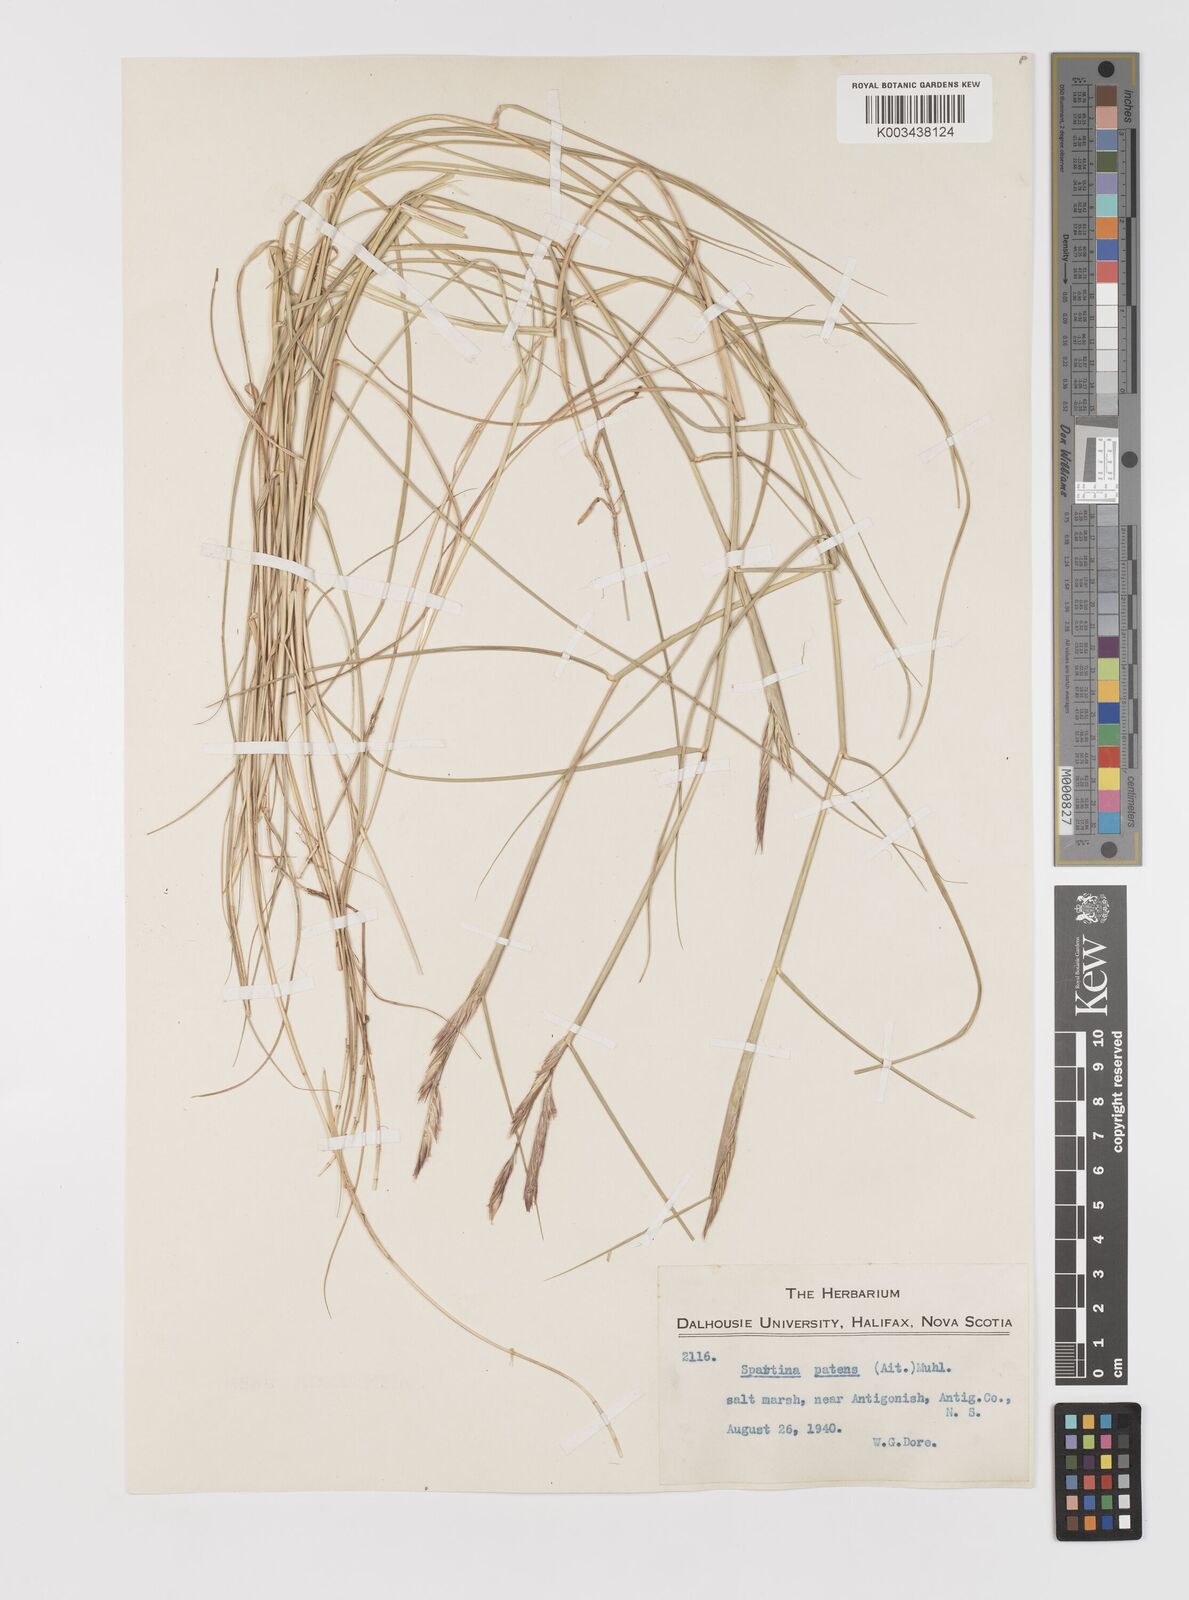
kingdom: Plantae
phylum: Tracheophyta
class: Liliopsida
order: Poales
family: Poaceae
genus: Sporobolus
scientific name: Sporobolus pumilus
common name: Highwater grass
